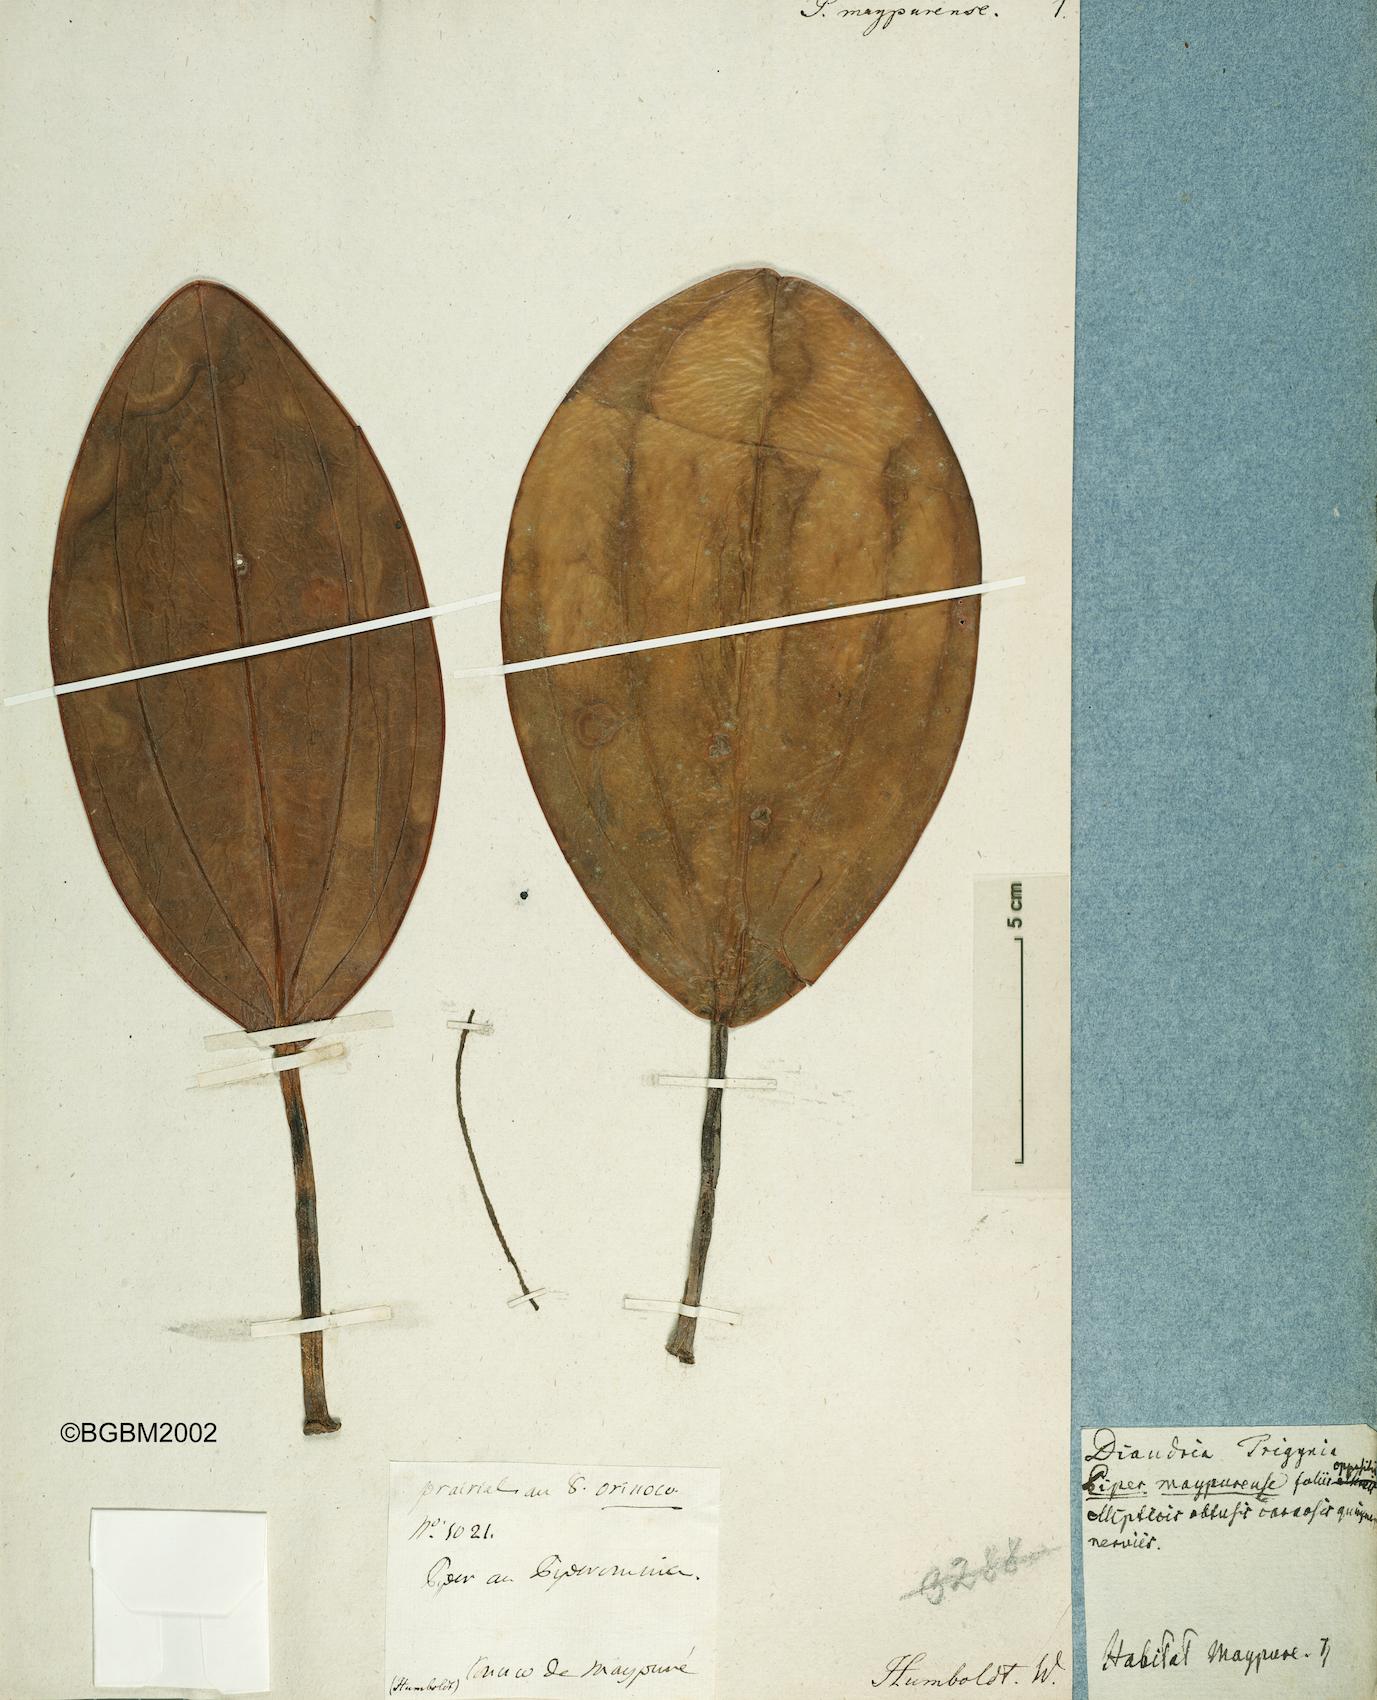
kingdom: Plantae
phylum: Tracheophyta
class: Magnoliopsida
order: Piperales
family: Piperaceae
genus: Peperomia
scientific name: Peperomia maypurensis
